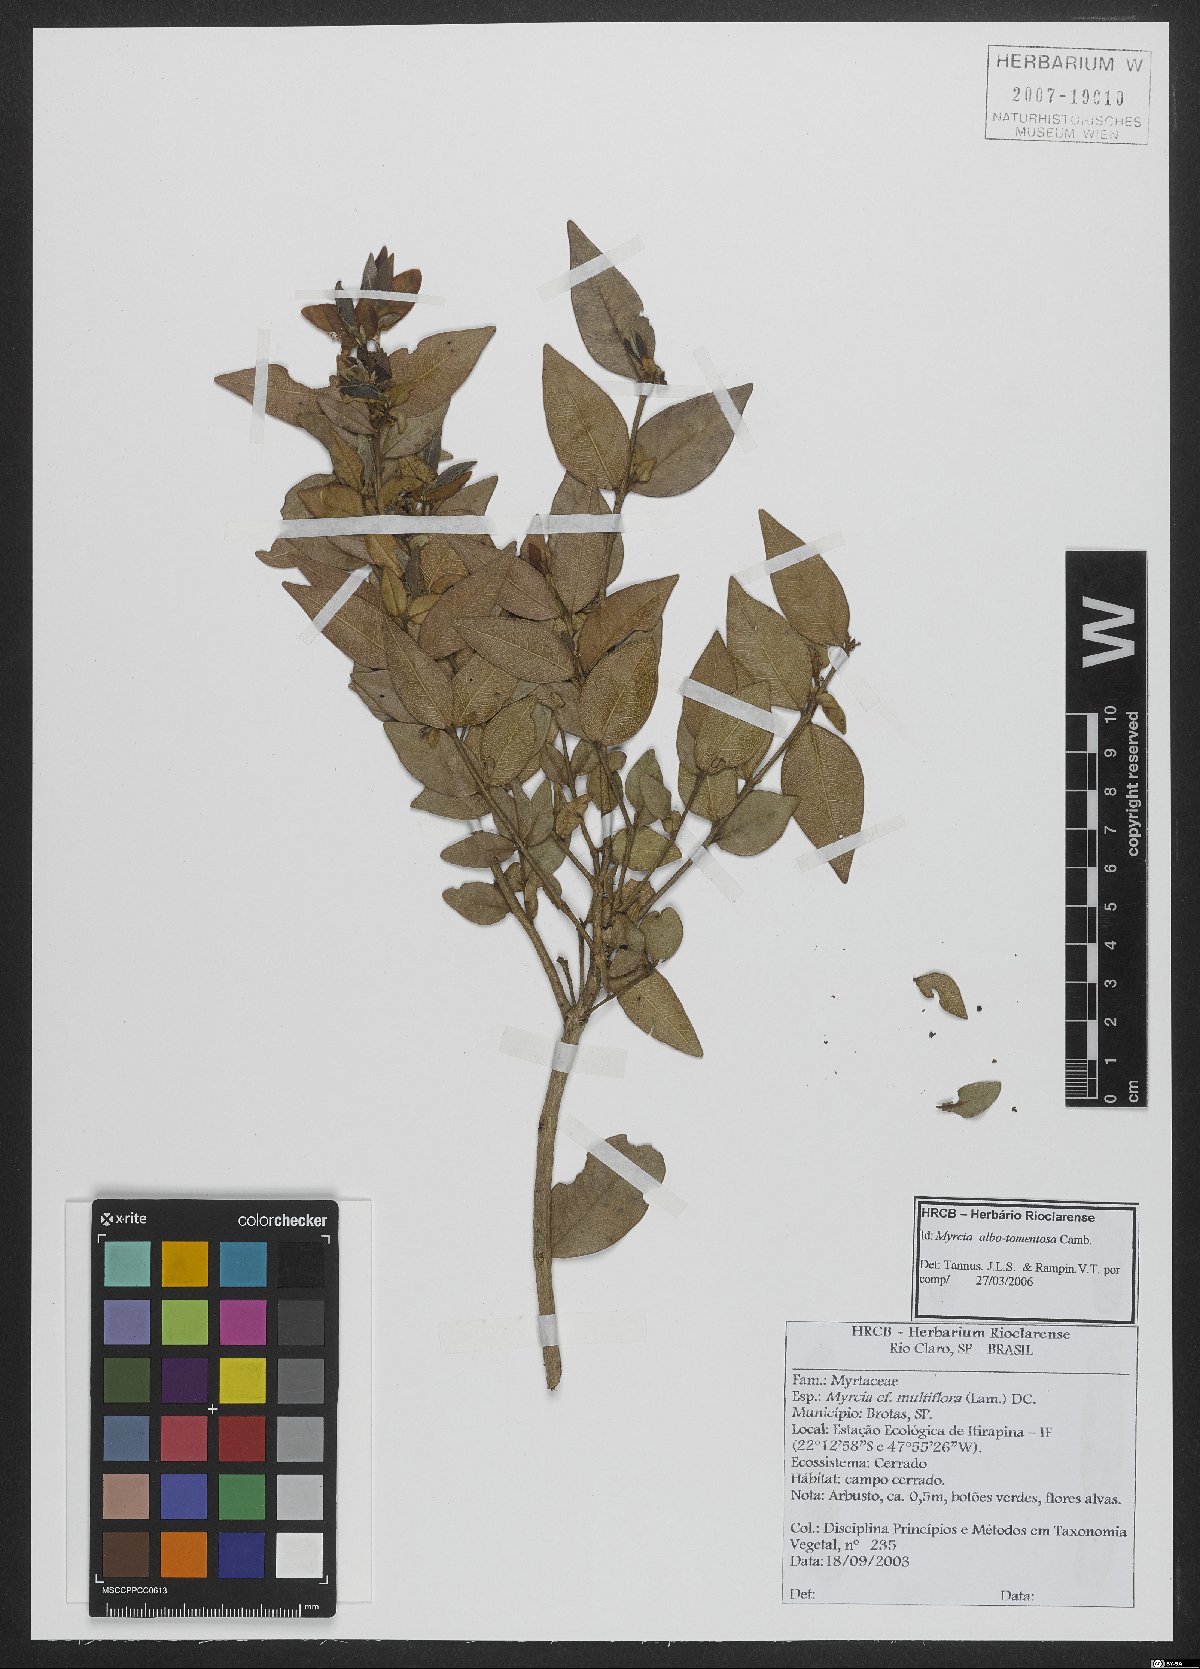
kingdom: Plantae
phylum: Tracheophyta
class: Magnoliopsida
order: Myrtales
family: Myrtaceae
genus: Myrcia
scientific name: Myrcia albotomentosa
